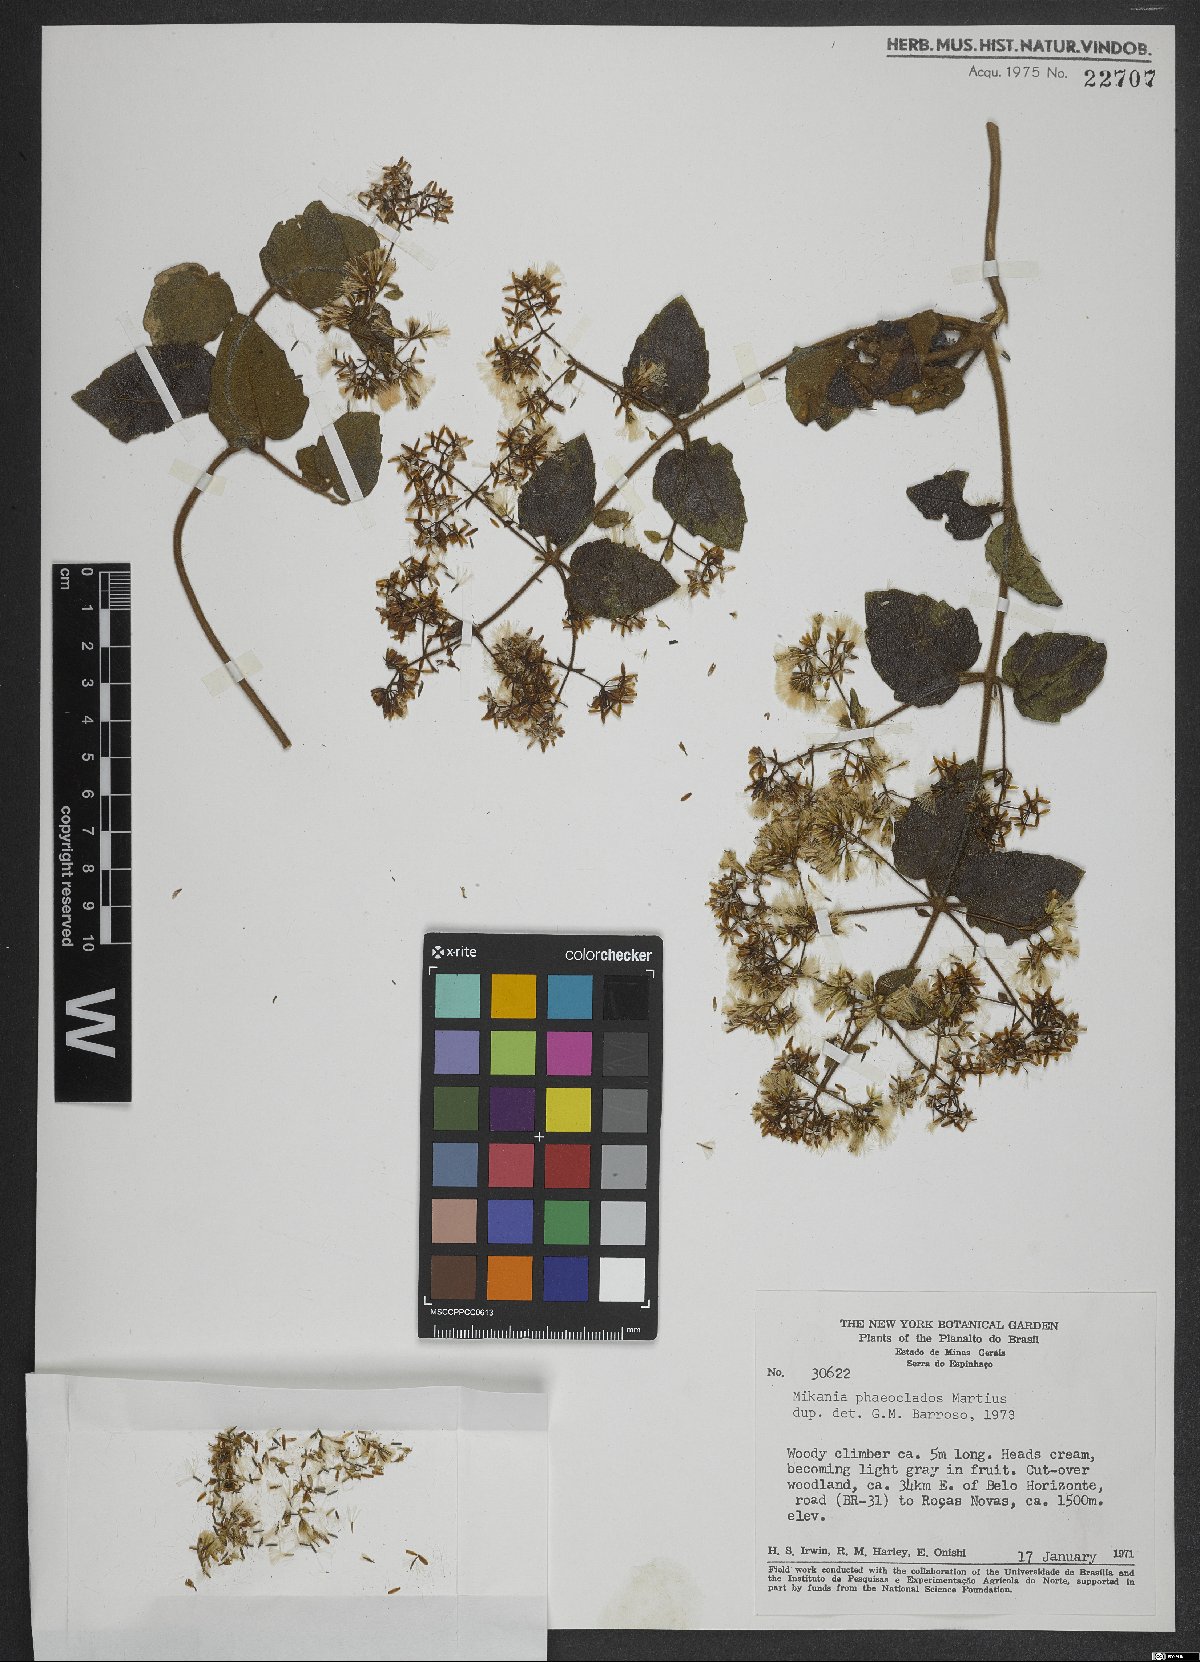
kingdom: Plantae
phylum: Tracheophyta
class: Magnoliopsida
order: Asterales
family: Asteraceae
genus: Mikania
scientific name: Mikania phaeoclados
